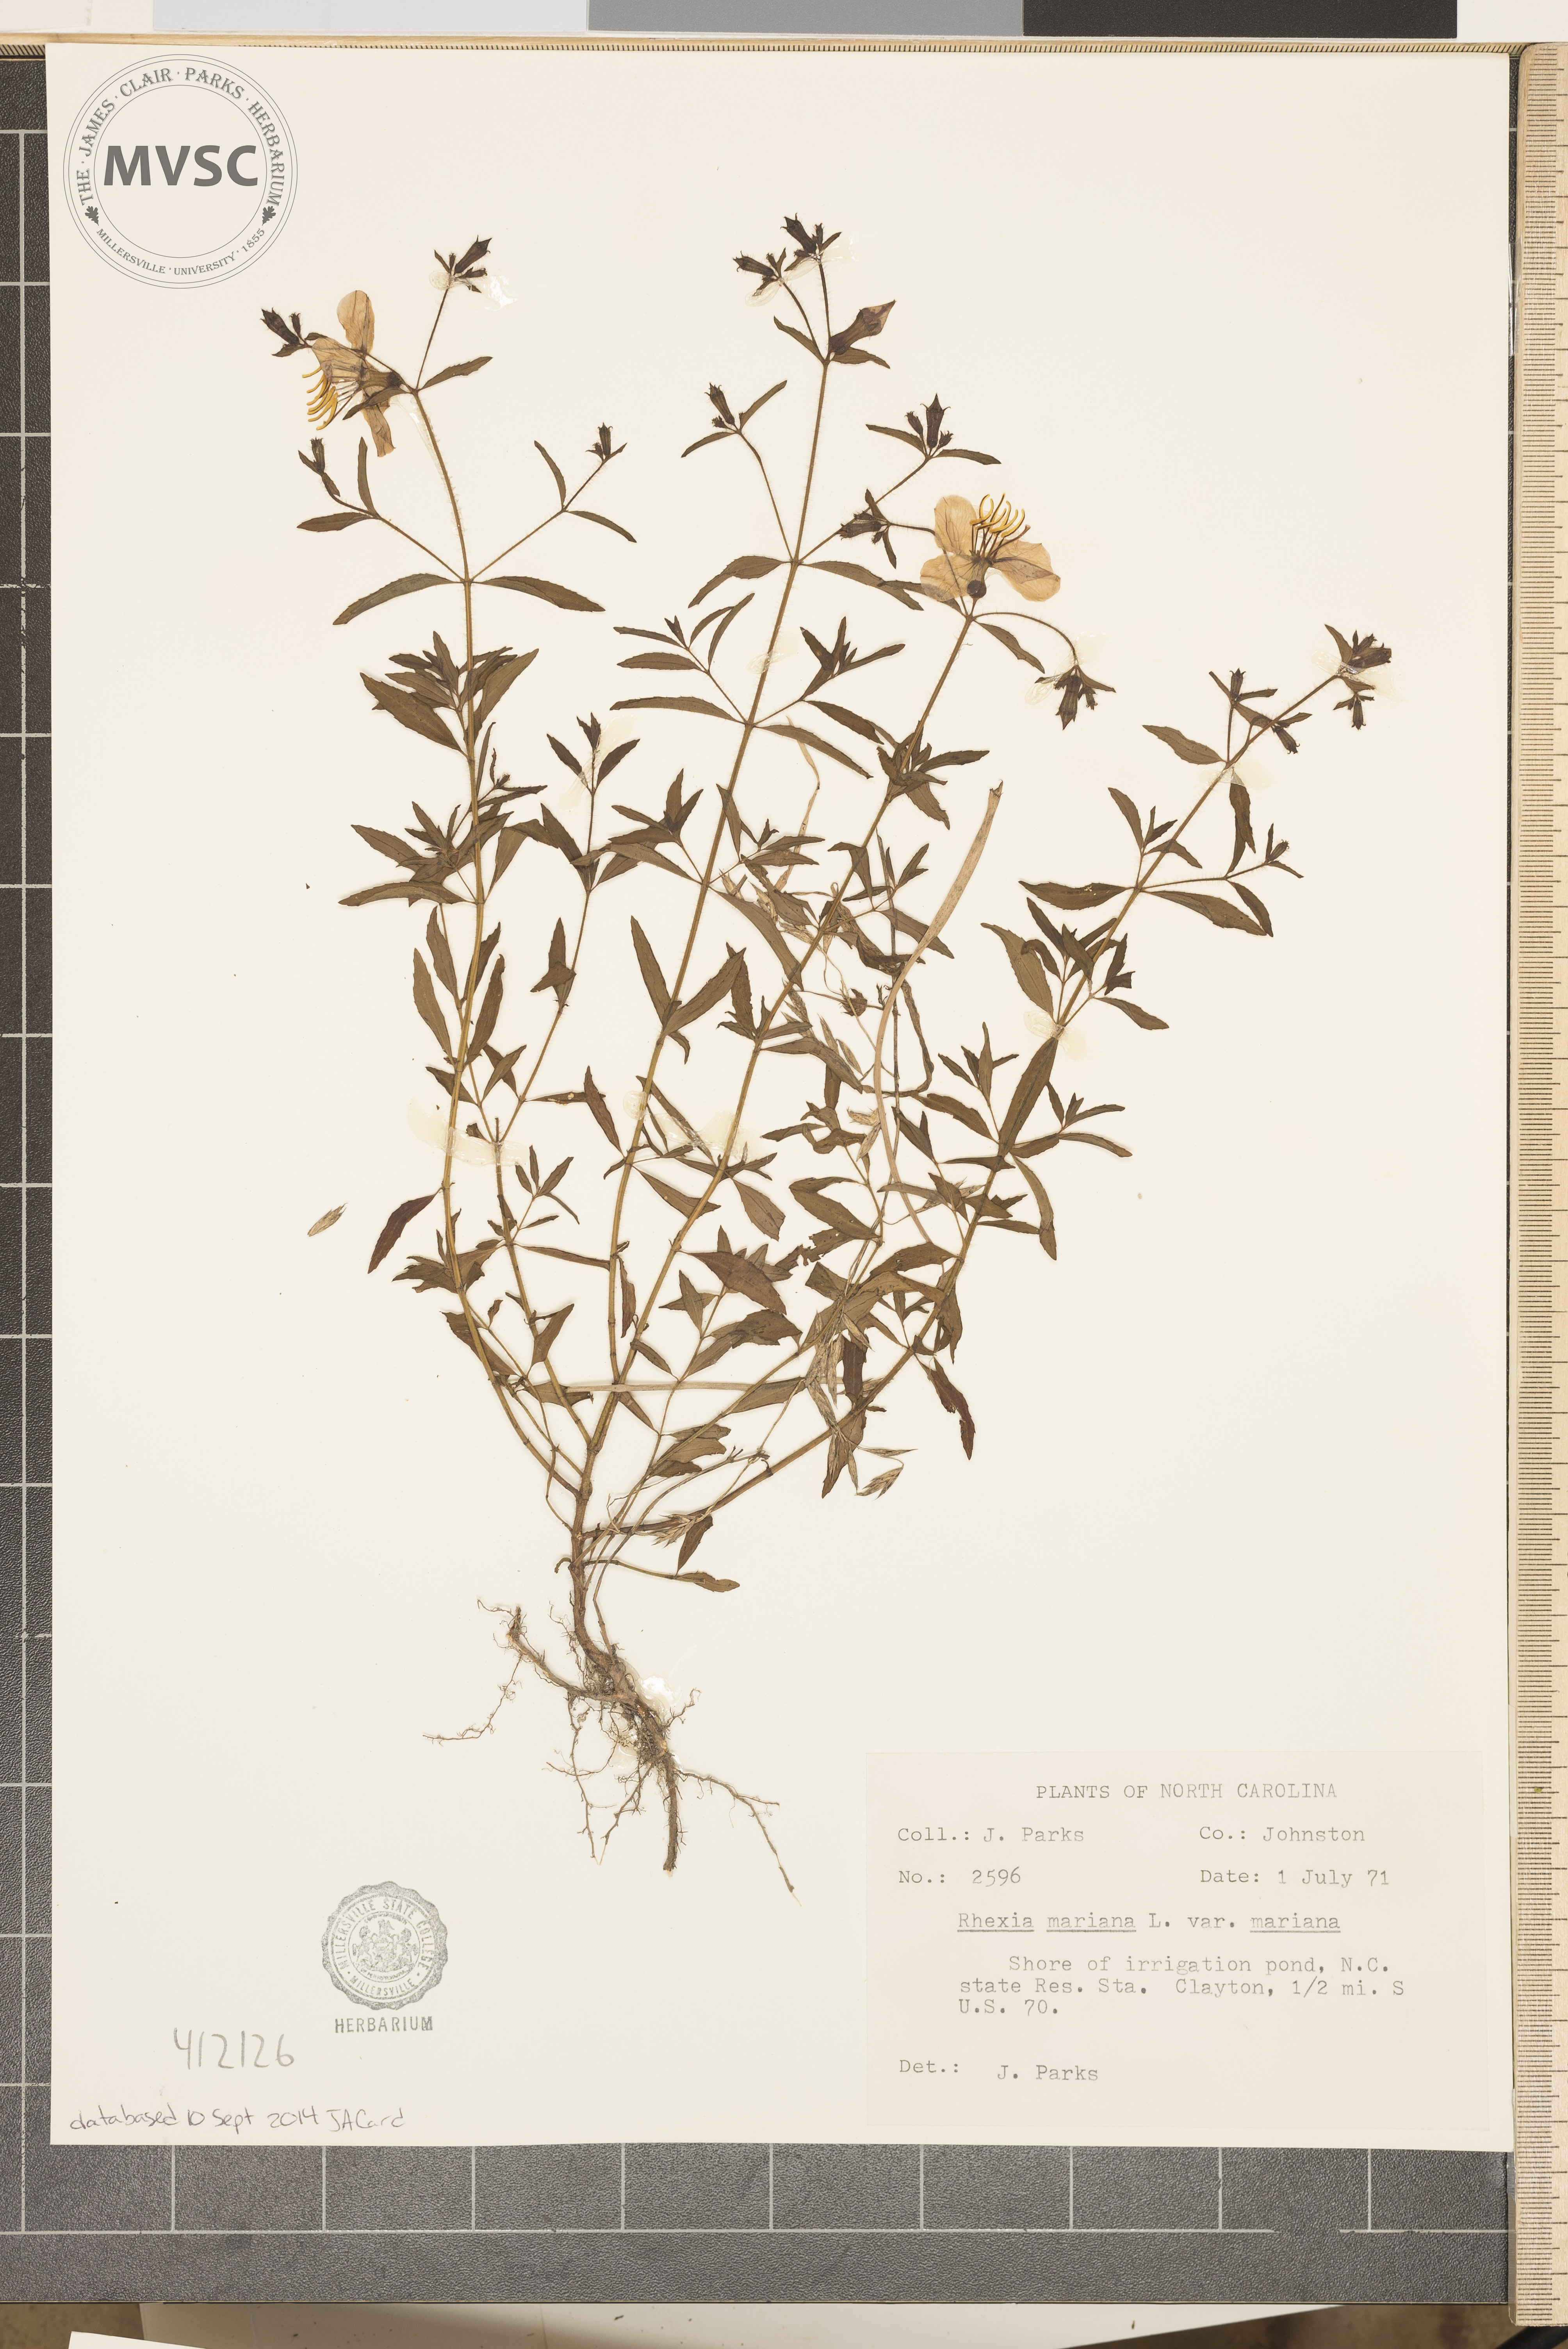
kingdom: Plantae
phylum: Tracheophyta
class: Magnoliopsida
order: Myrtales
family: Melastomataceae
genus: Rhexia
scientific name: Rhexia mariana
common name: Dull meadow-pitcher
